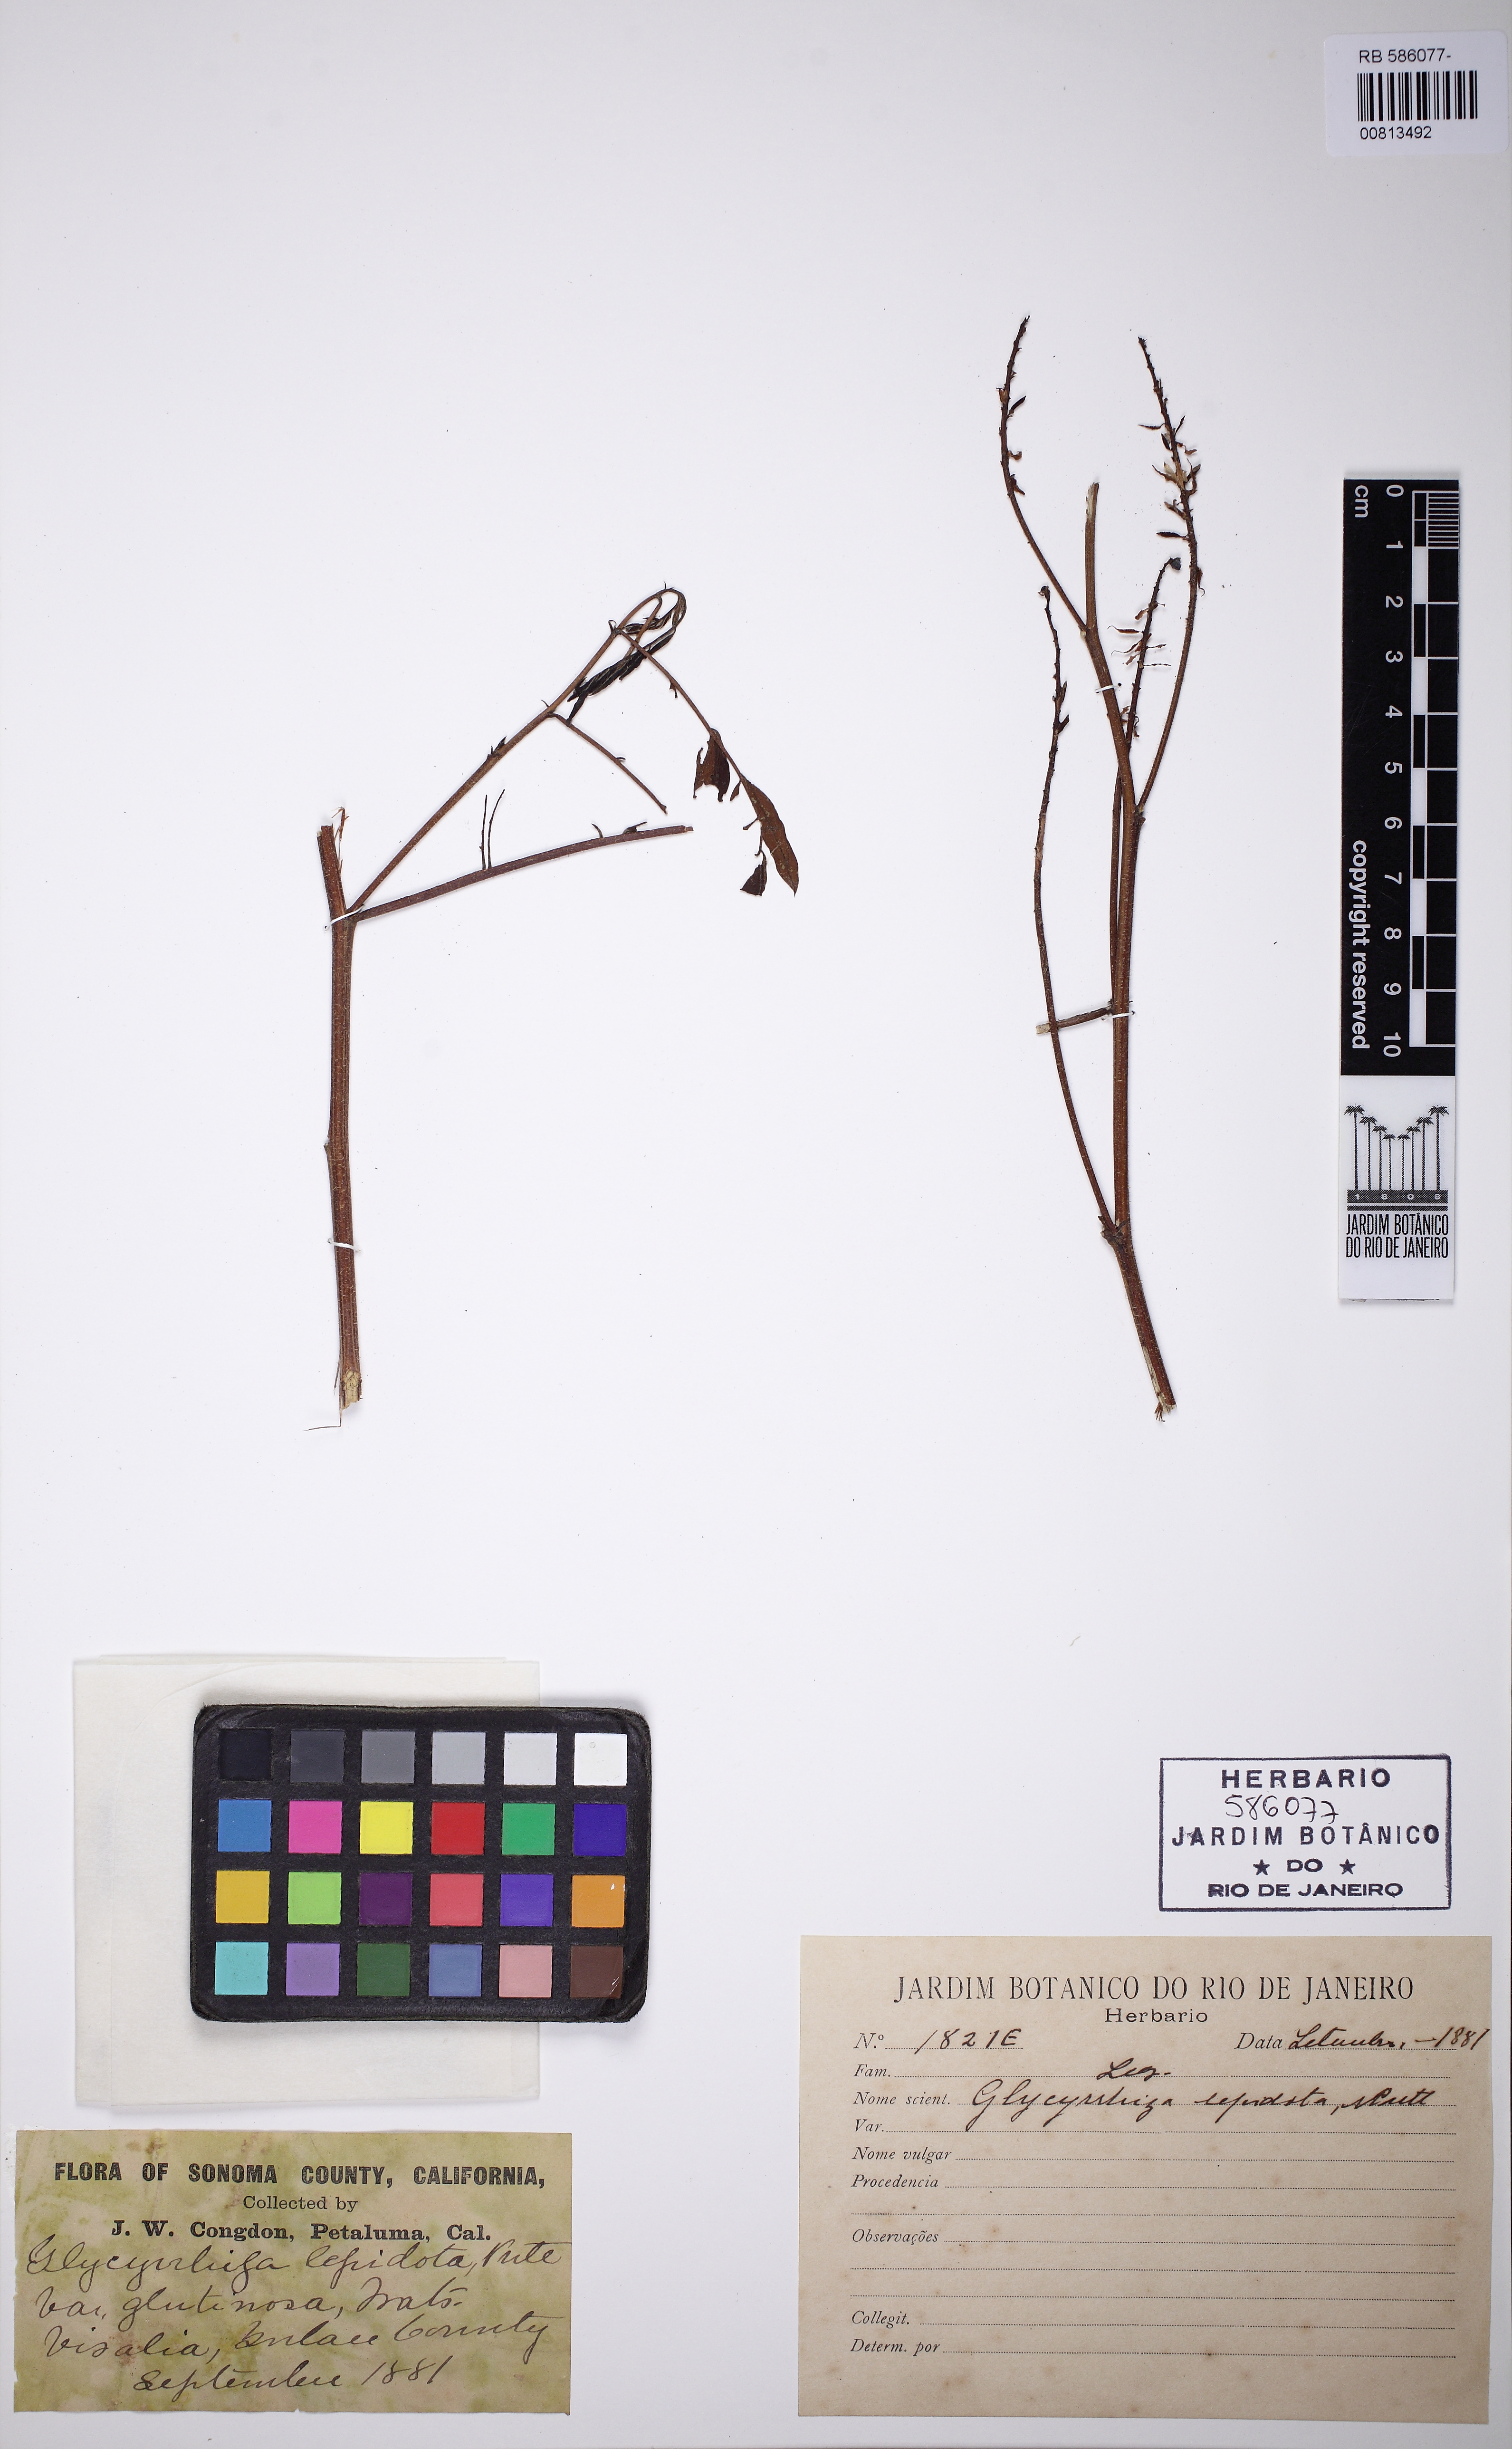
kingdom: Plantae
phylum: Tracheophyta
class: Magnoliopsida
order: Fabales
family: Fabaceae
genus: Glycyrrhiza
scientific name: Glycyrrhiza lepidota
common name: American liquorice
